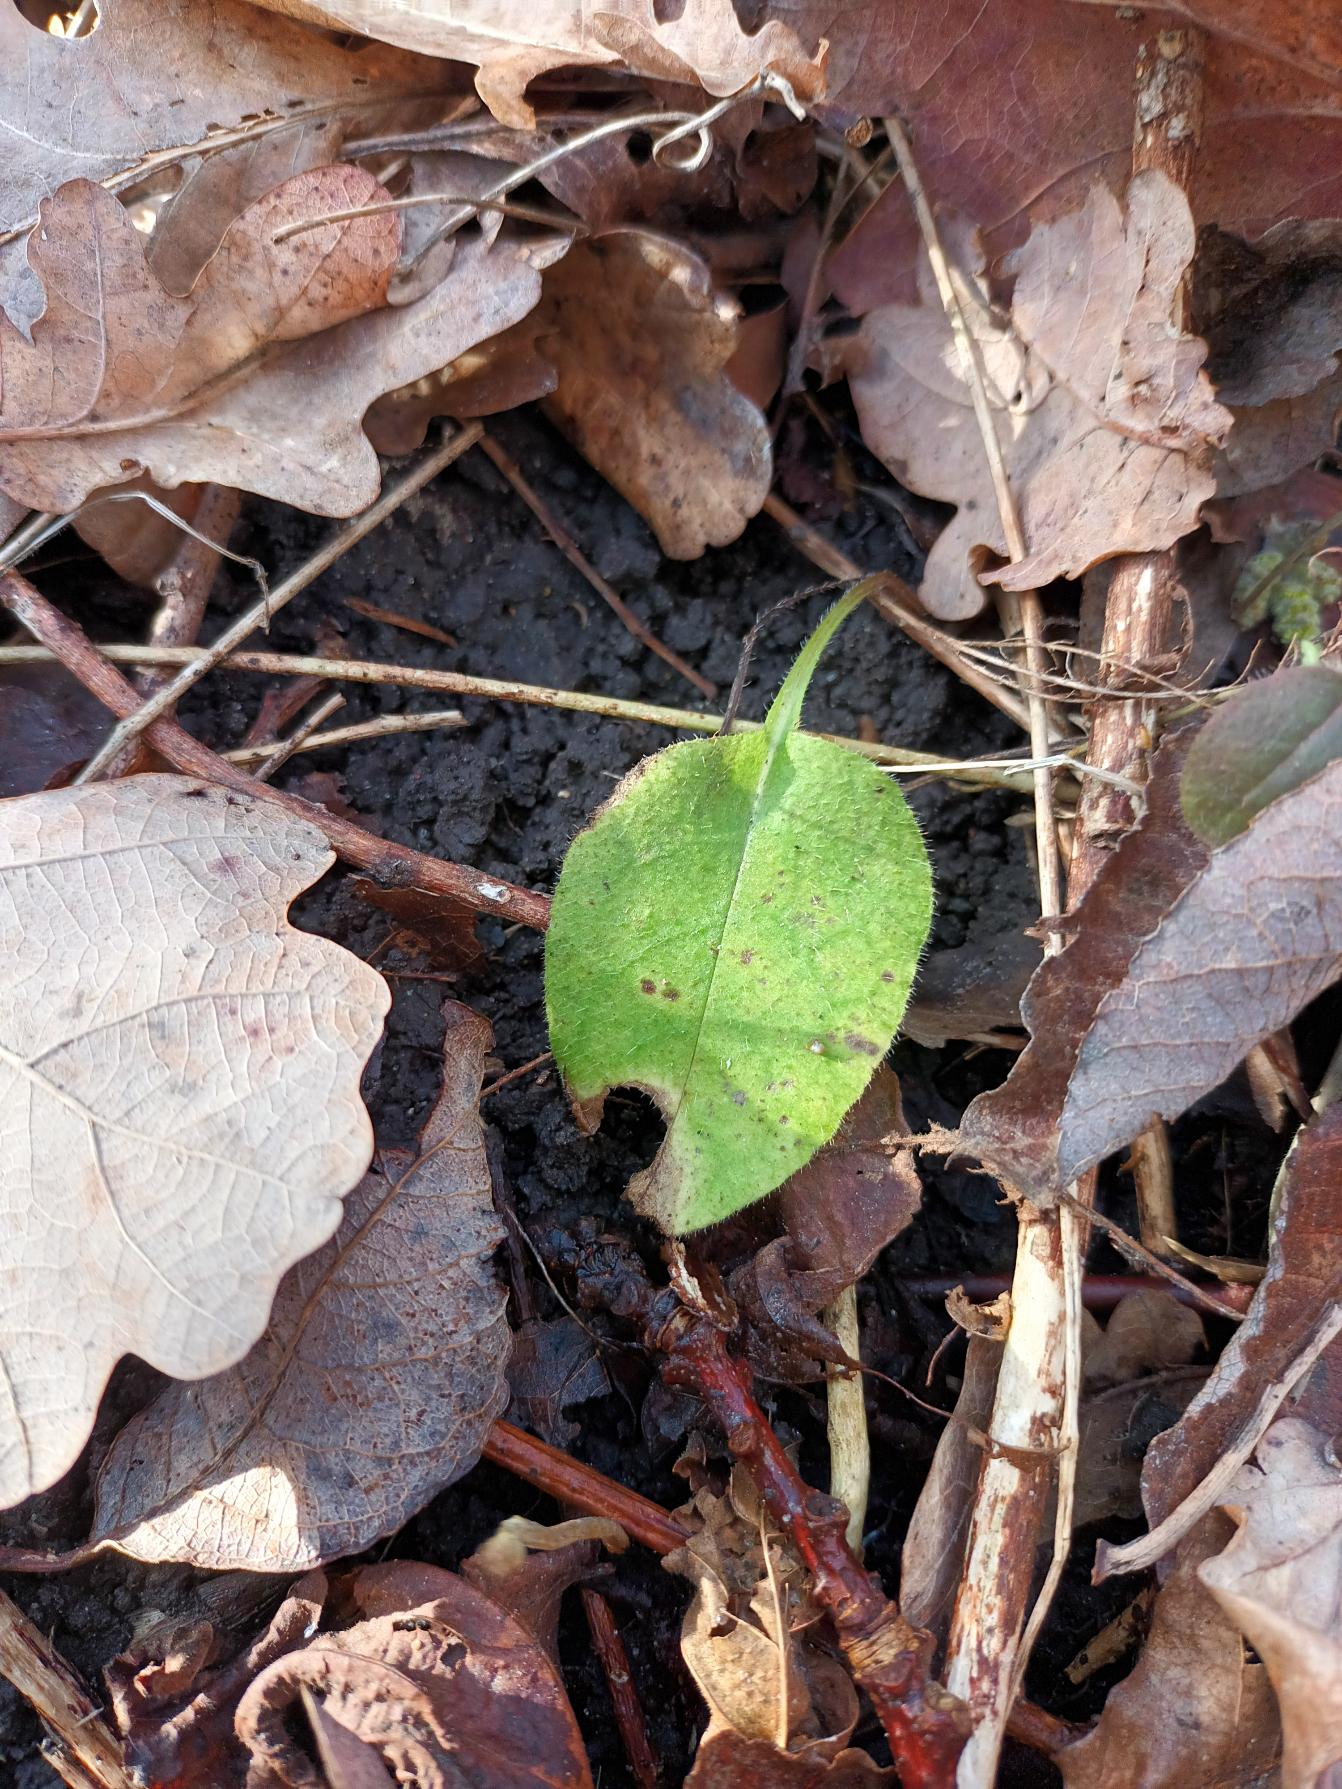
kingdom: Plantae
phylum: Tracheophyta
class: Magnoliopsida
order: Boraginales
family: Boraginaceae
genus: Pulmonaria
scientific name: Pulmonaria obscura
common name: Almindelig lungeurt
